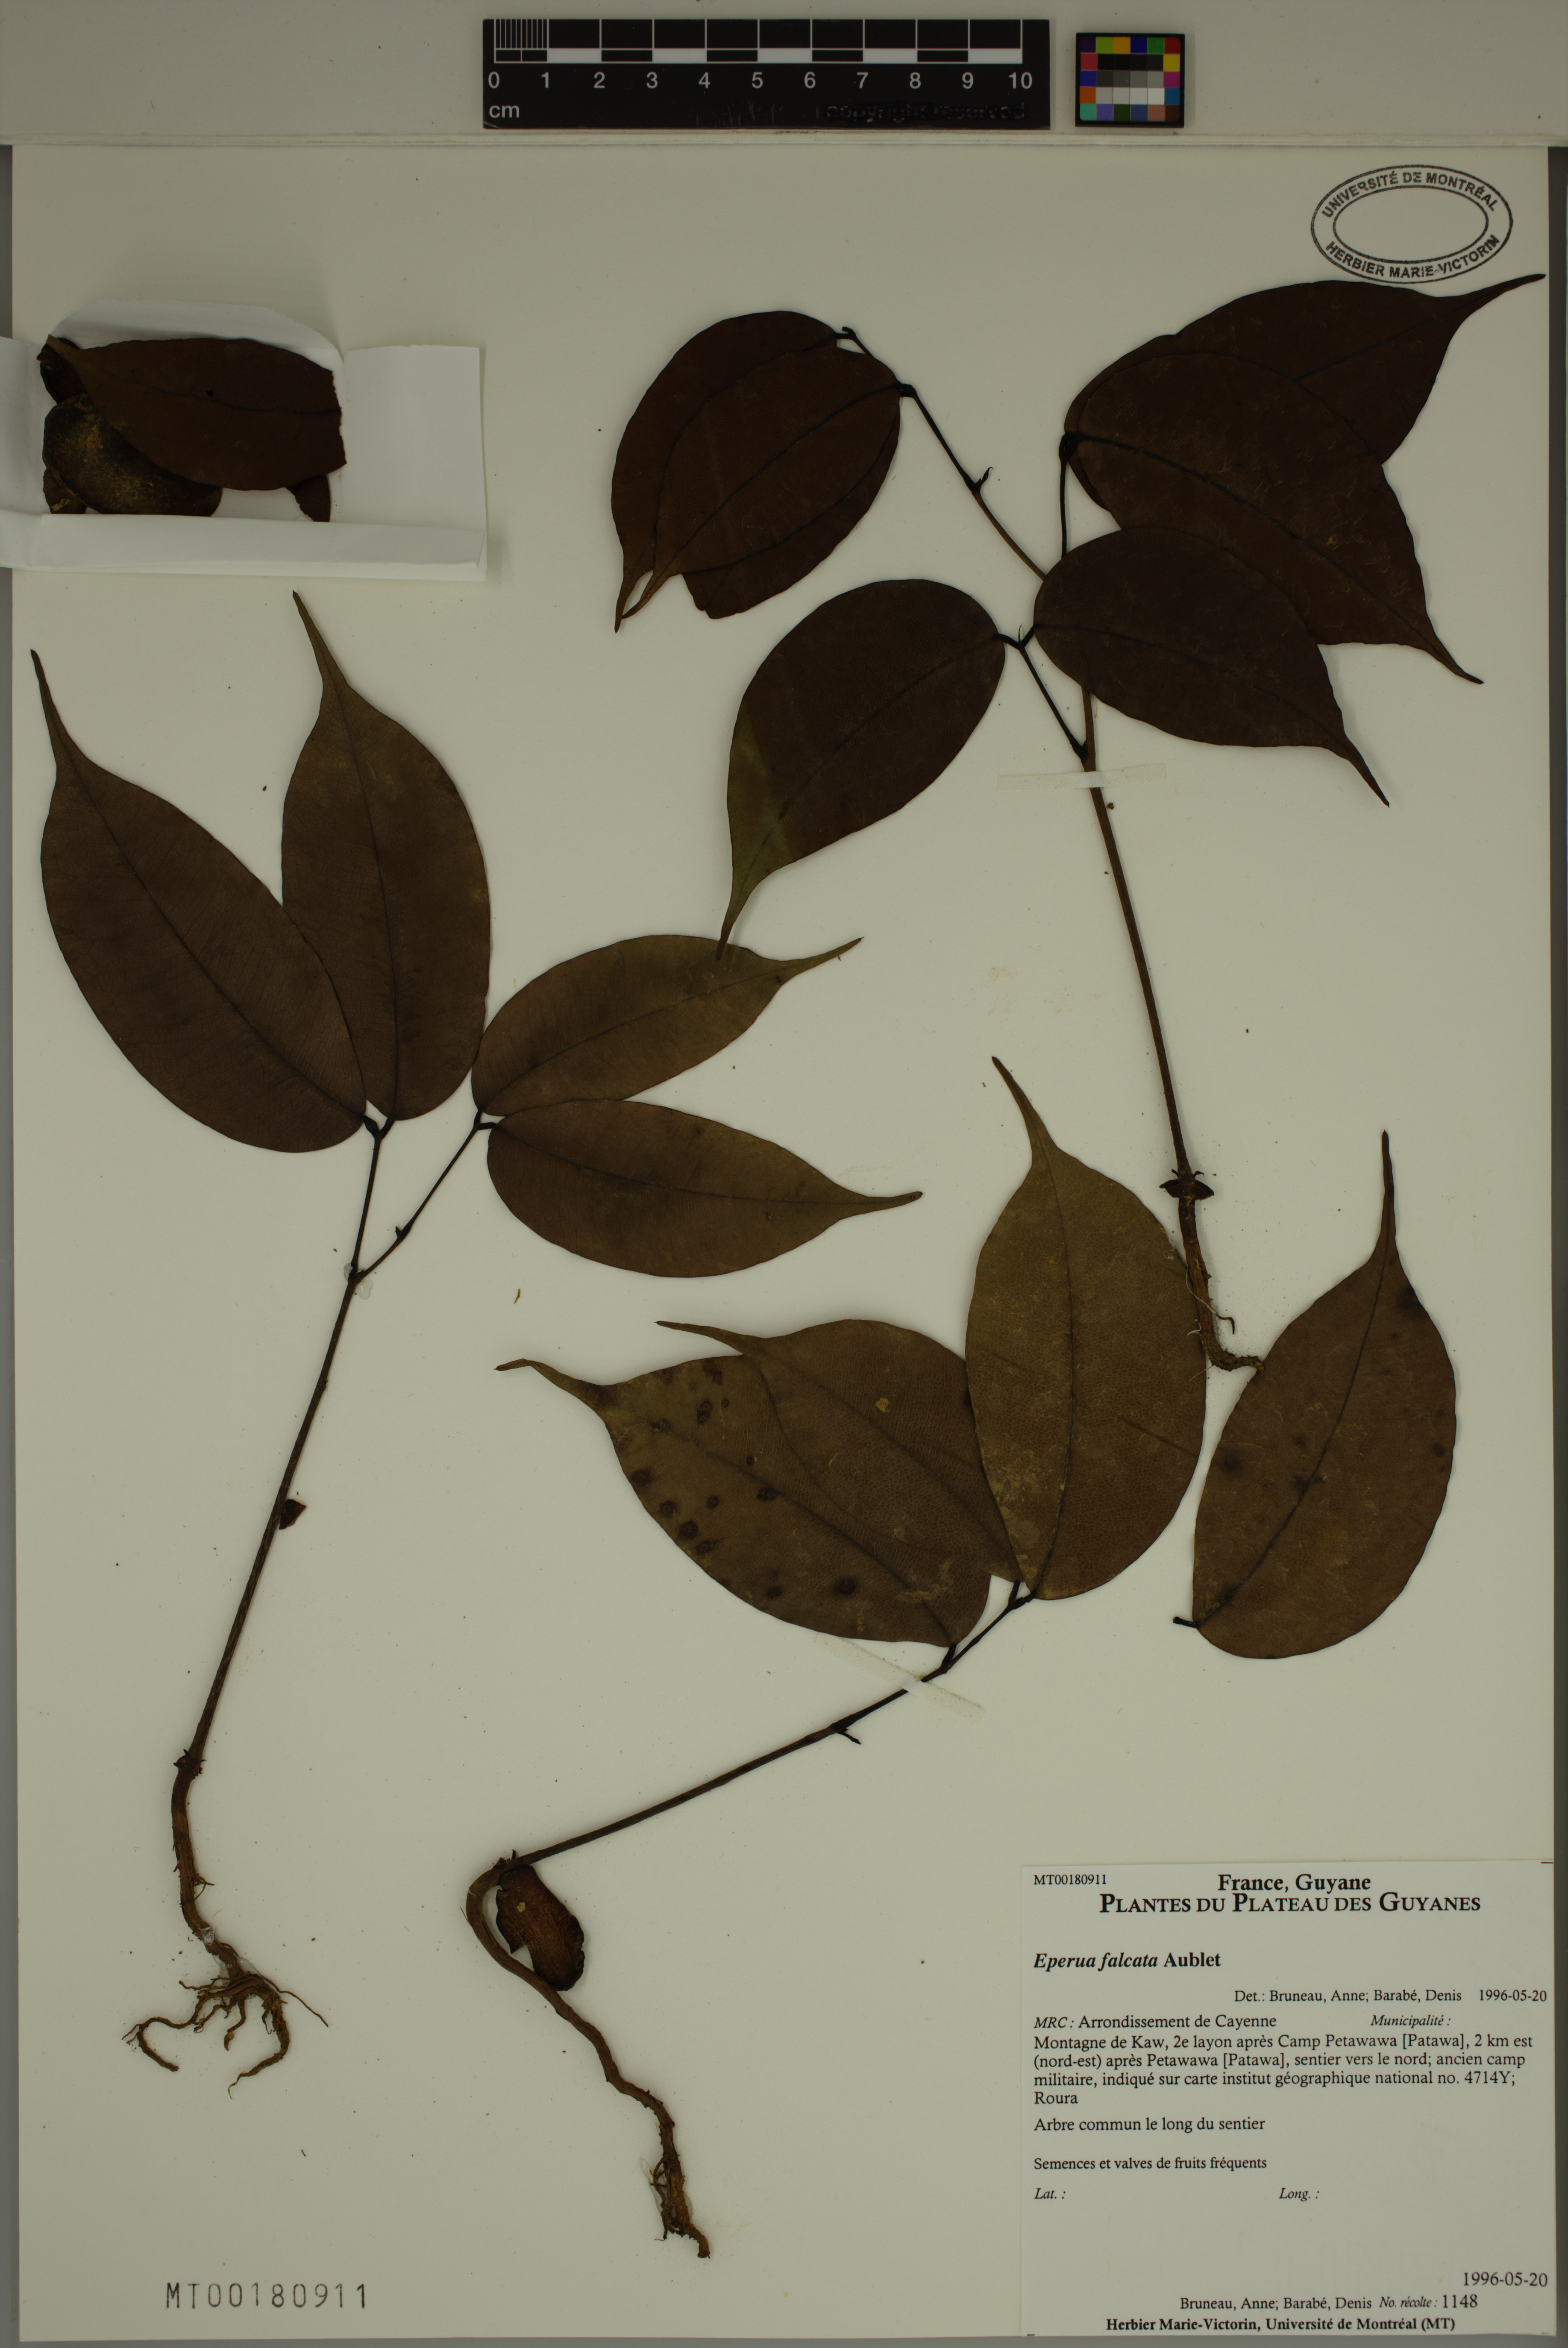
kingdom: Plantae
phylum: Tracheophyta
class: Magnoliopsida
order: Fabales
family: Fabaceae
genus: Eperua
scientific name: Eperua falcata
